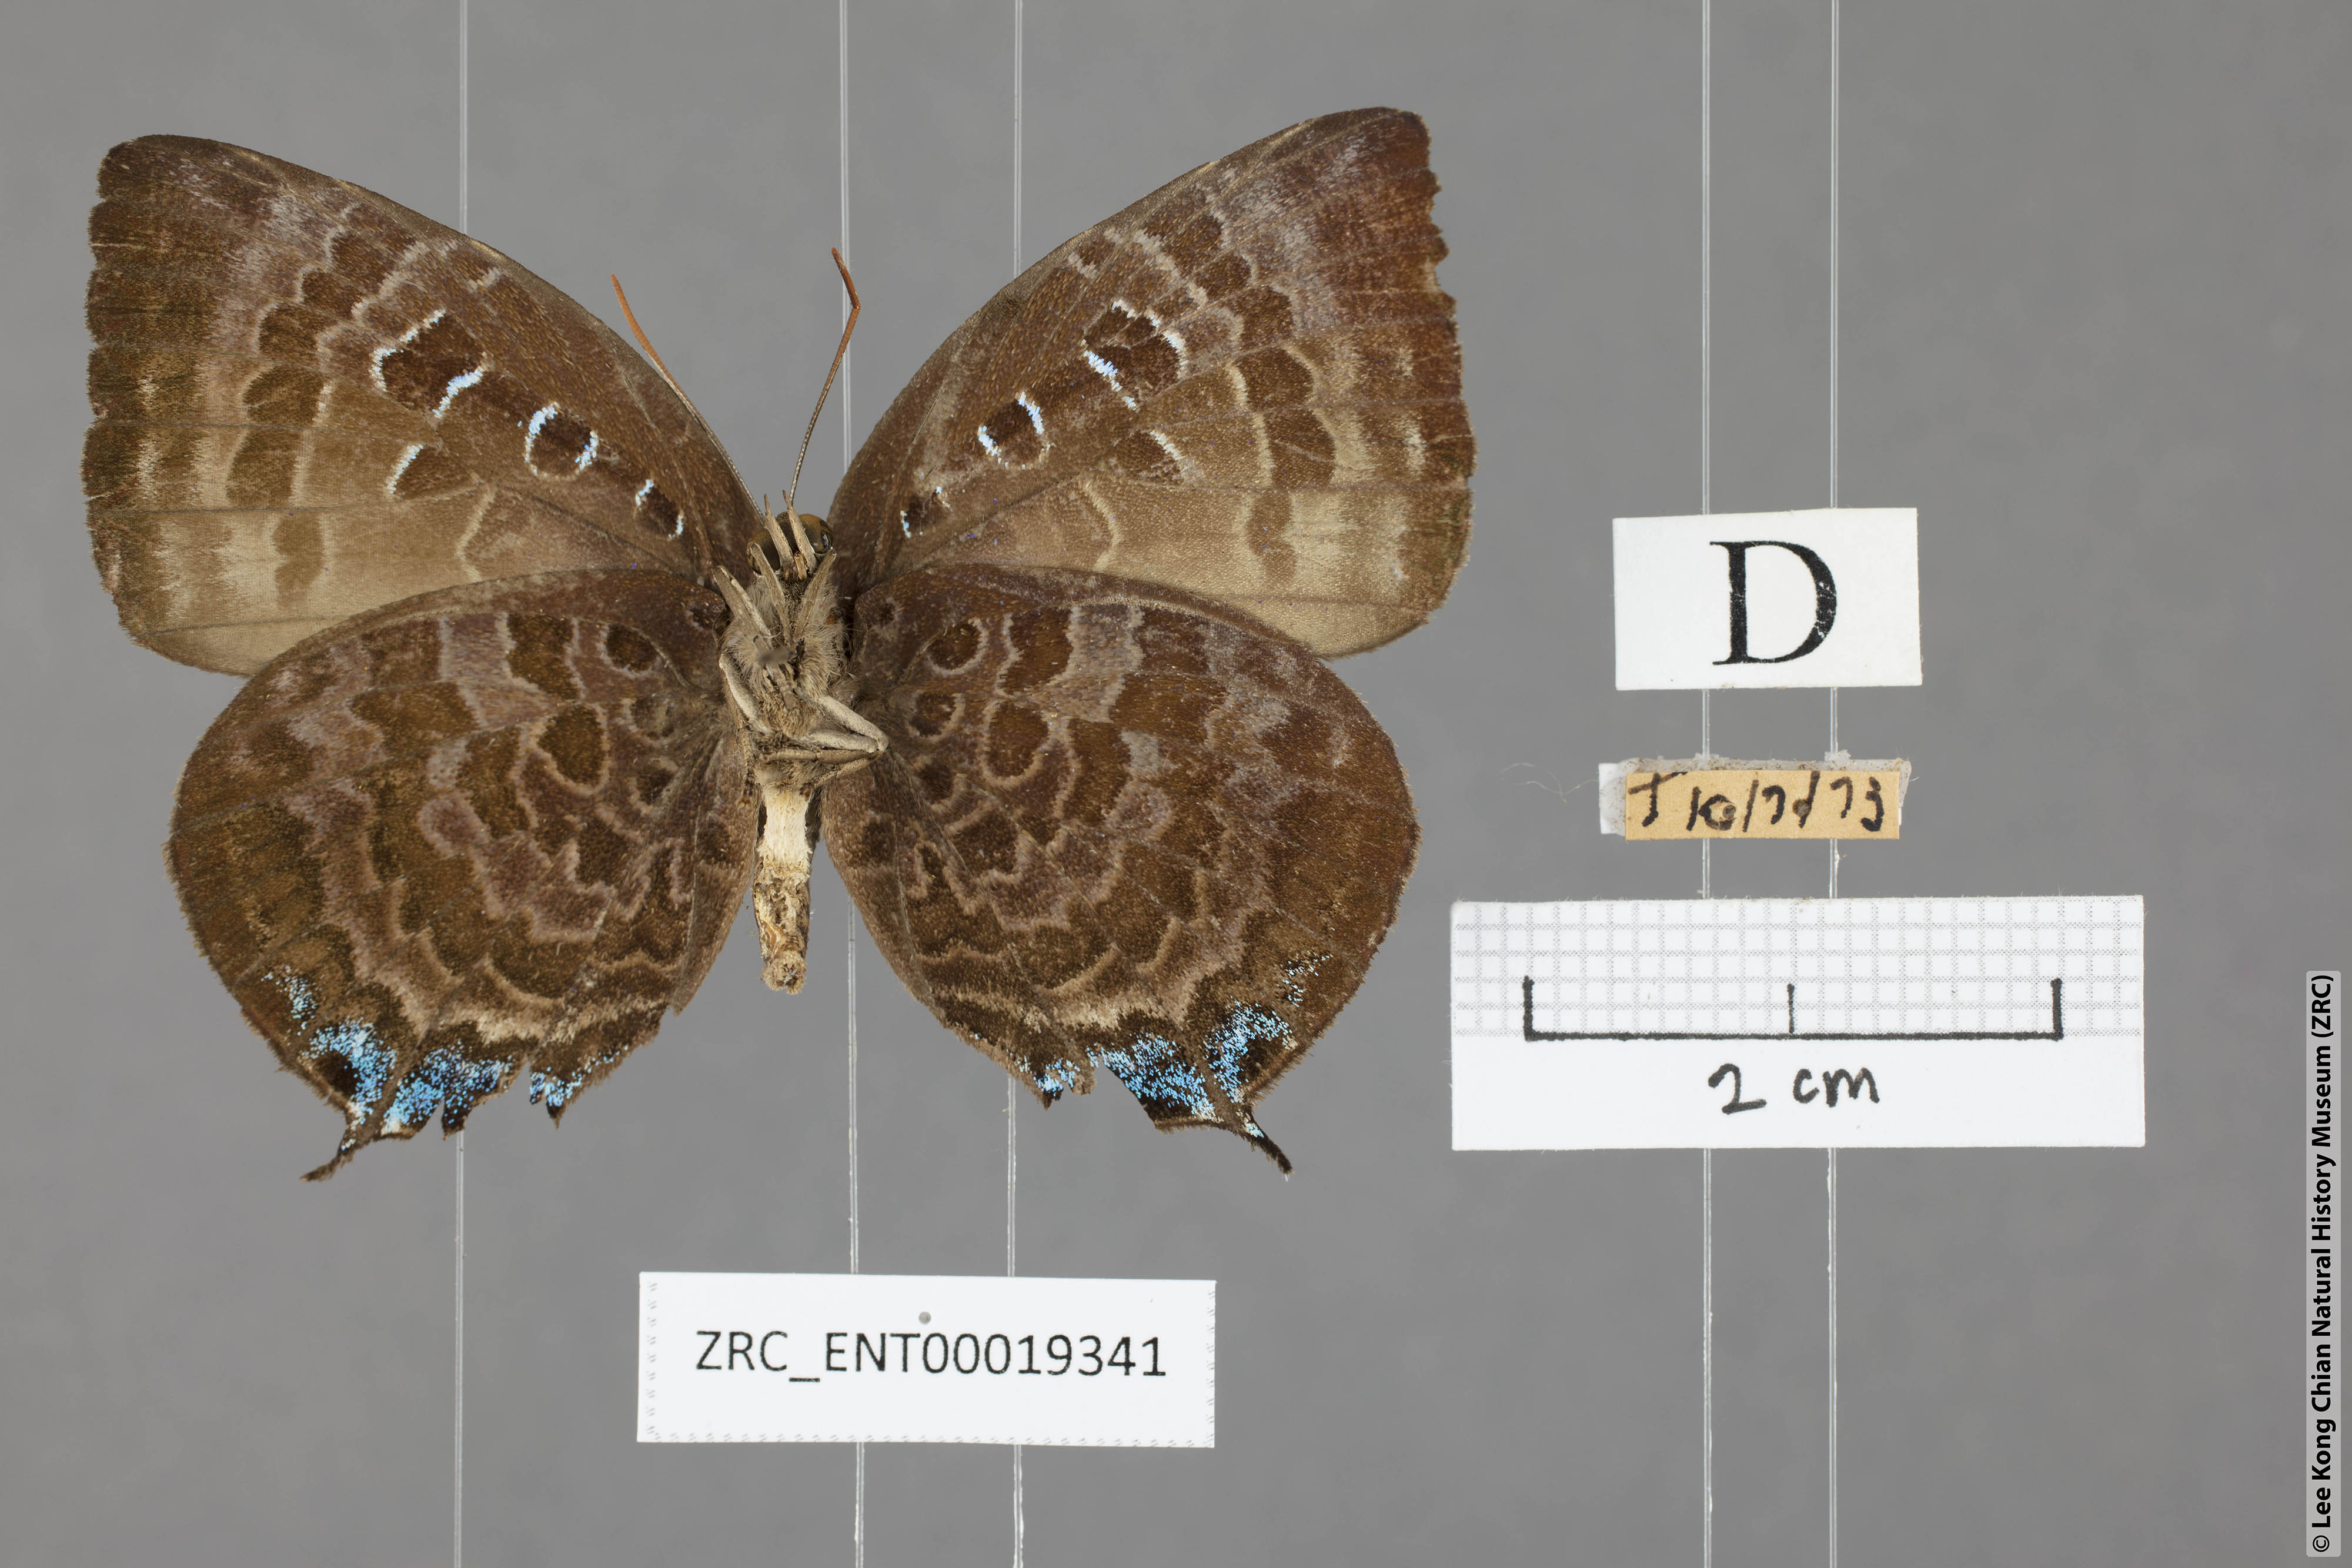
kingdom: Animalia
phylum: Arthropoda
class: Insecta
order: Lepidoptera
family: Lycaenidae
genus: Arhopala
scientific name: Arhopala centaurus
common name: Dull oak-blue
